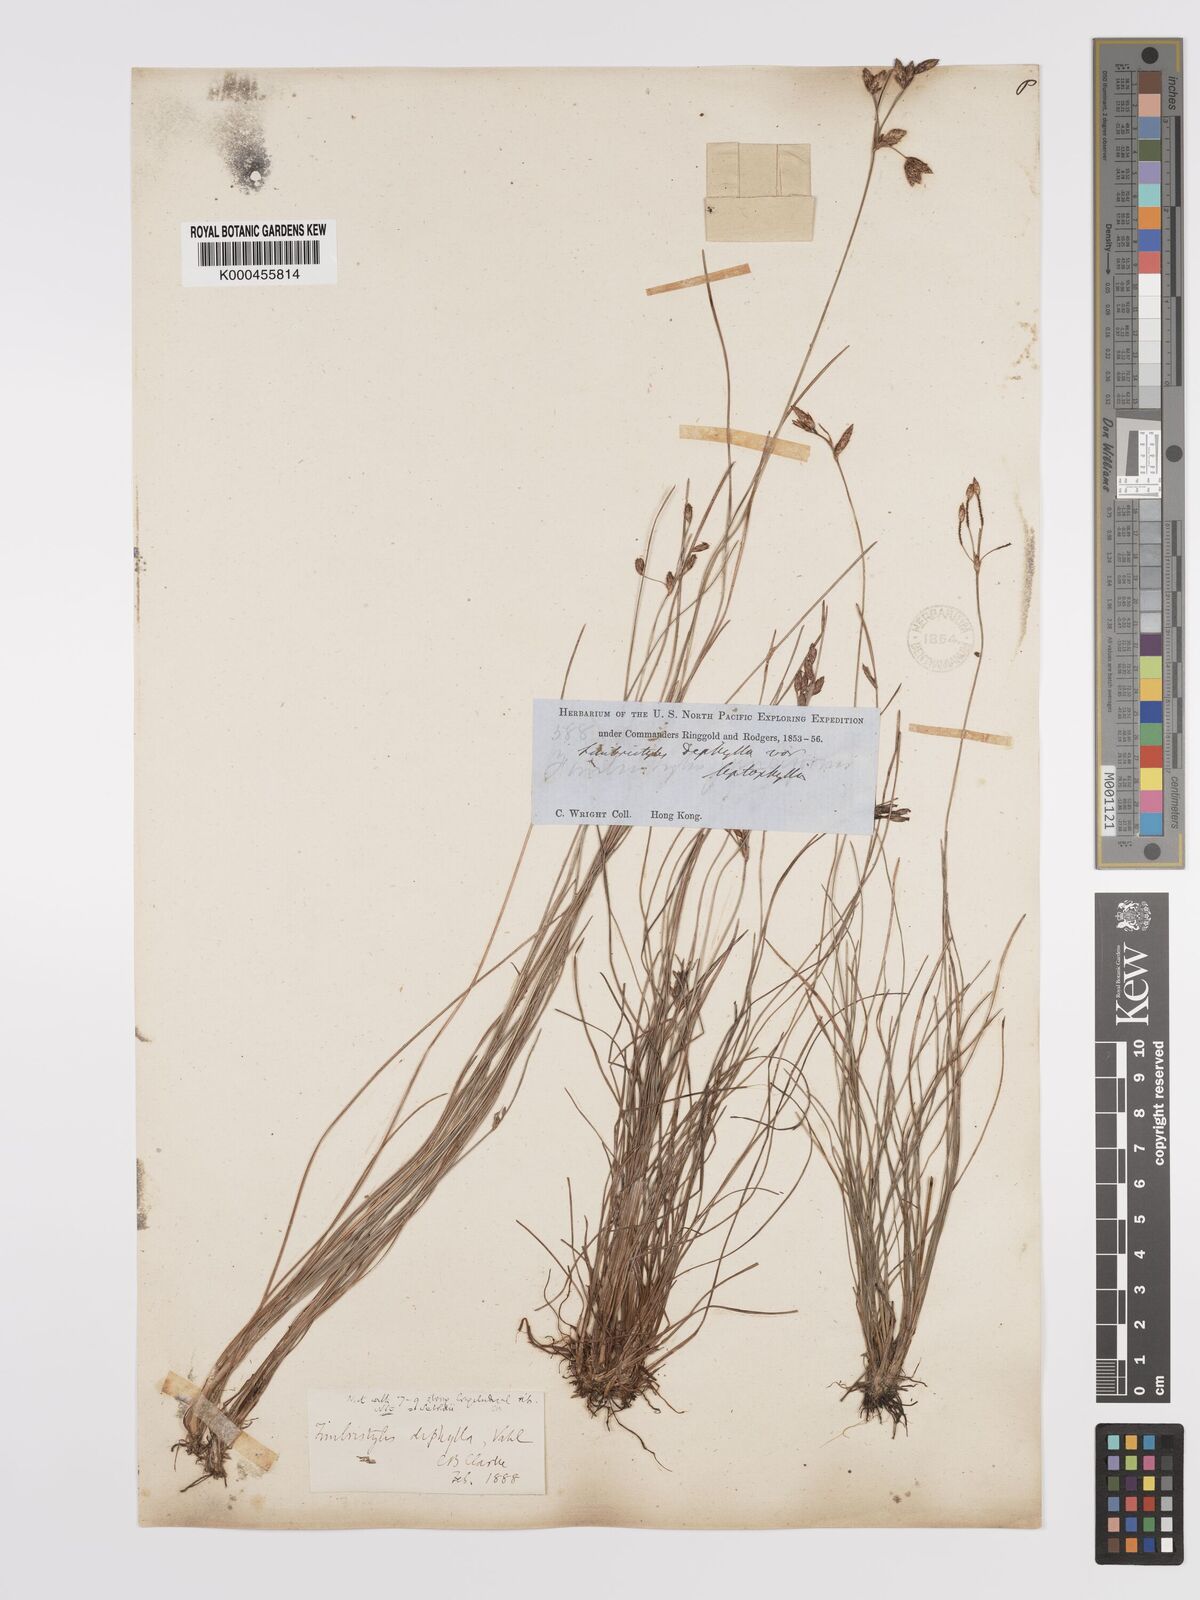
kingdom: Plantae
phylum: Tracheophyta
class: Liliopsida
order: Poales
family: Cyperaceae
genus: Fimbristylis
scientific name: Fimbristylis dichotoma
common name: Forked fimbry
